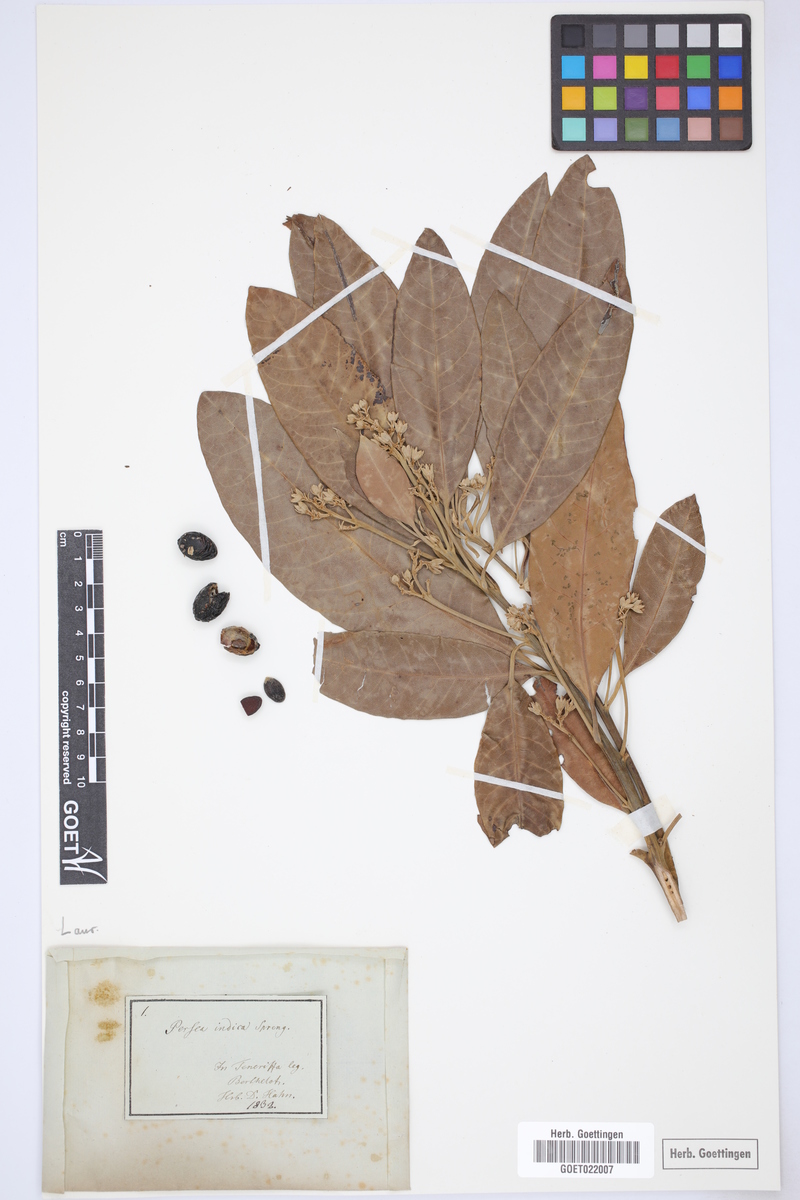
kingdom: Plantae
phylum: Tracheophyta
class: Magnoliopsida
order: Laurales
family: Lauraceae
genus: Persea
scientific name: Persea indica
